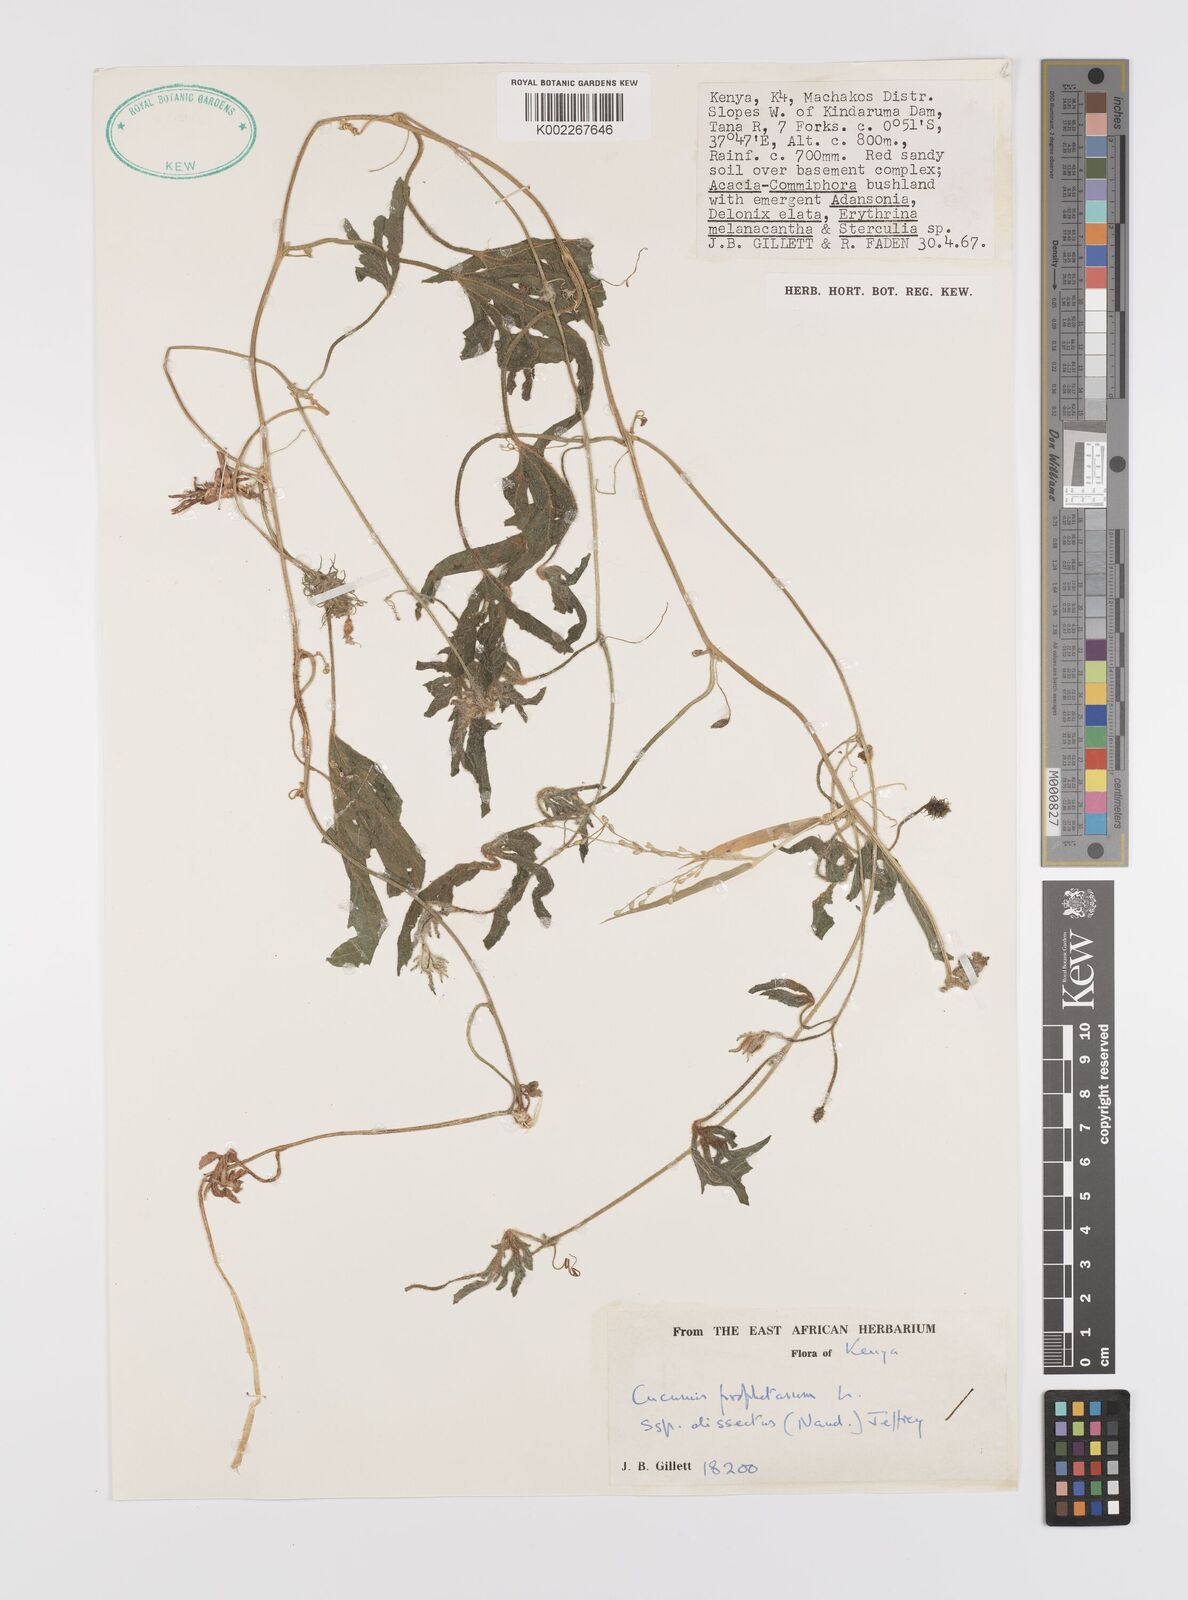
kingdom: Plantae
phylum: Tracheophyta
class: Magnoliopsida
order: Cucurbitales
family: Cucurbitaceae
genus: Cucumis
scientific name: Cucumis insignis
